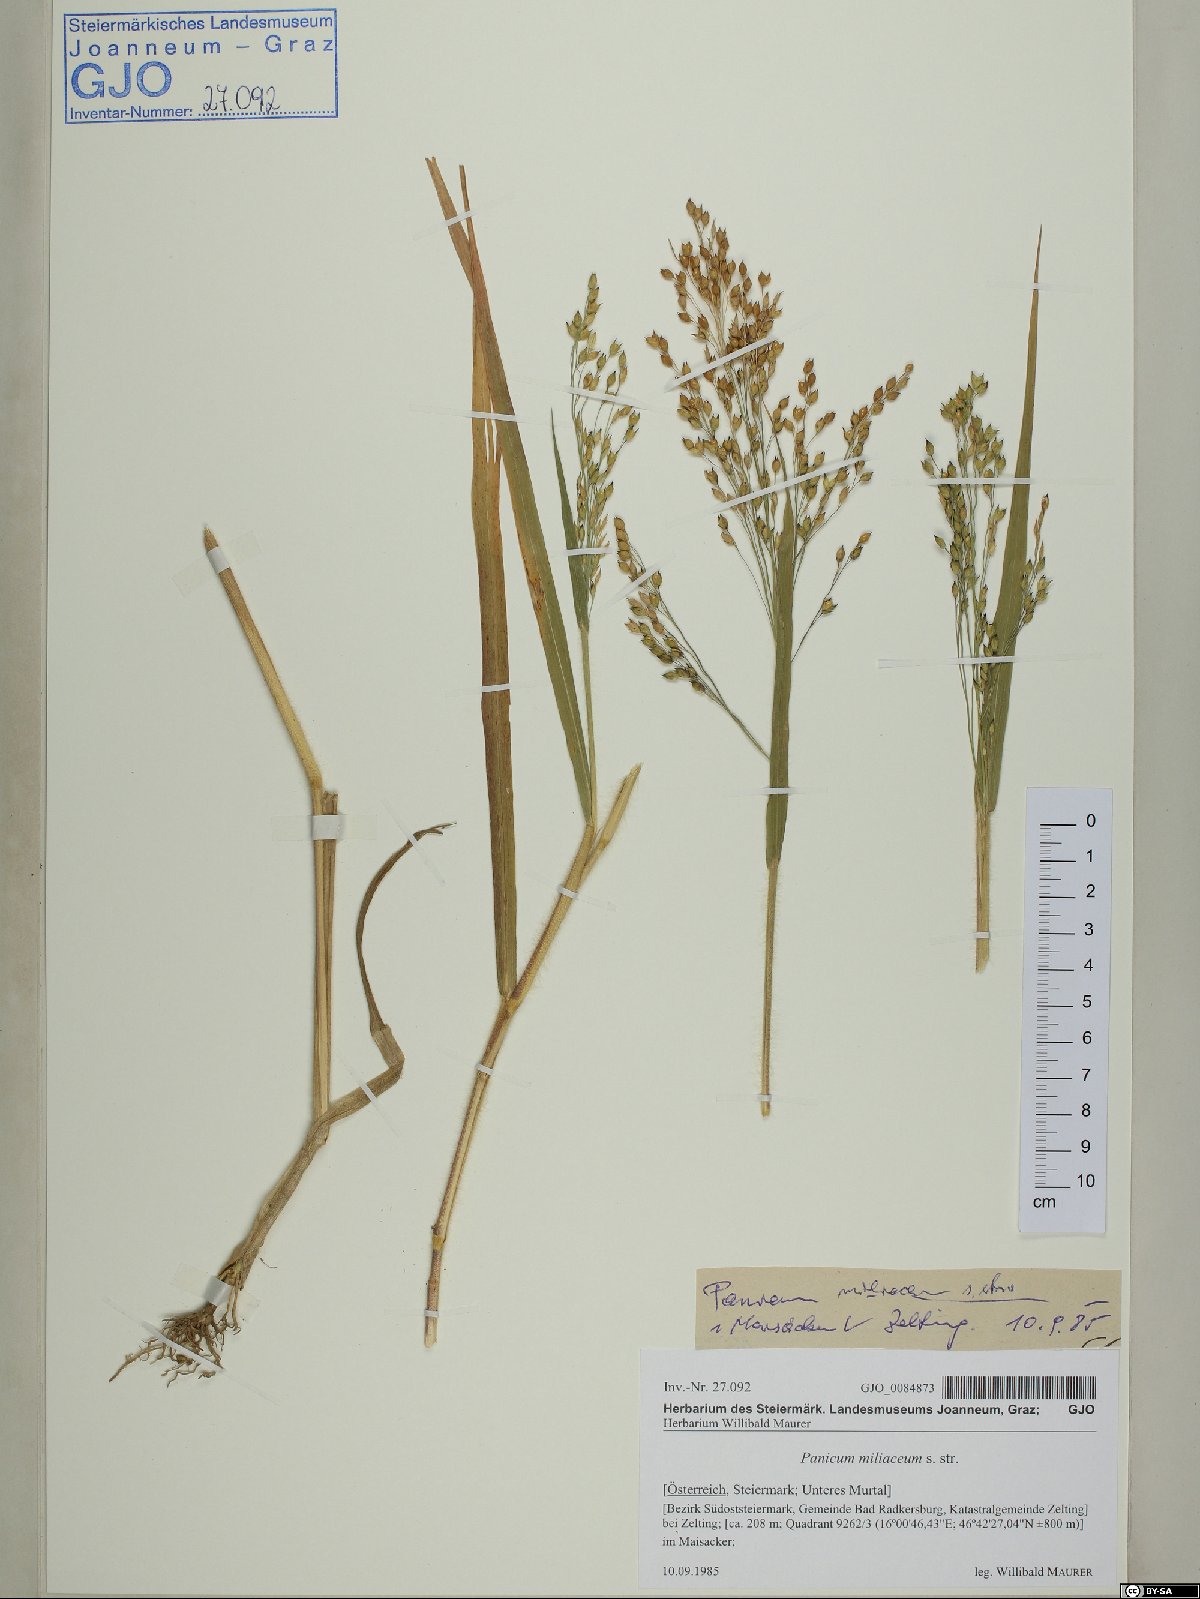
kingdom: Plantae
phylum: Tracheophyta
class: Liliopsida
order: Poales
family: Poaceae
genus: Panicum
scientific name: Panicum miliaceum
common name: Common millet
